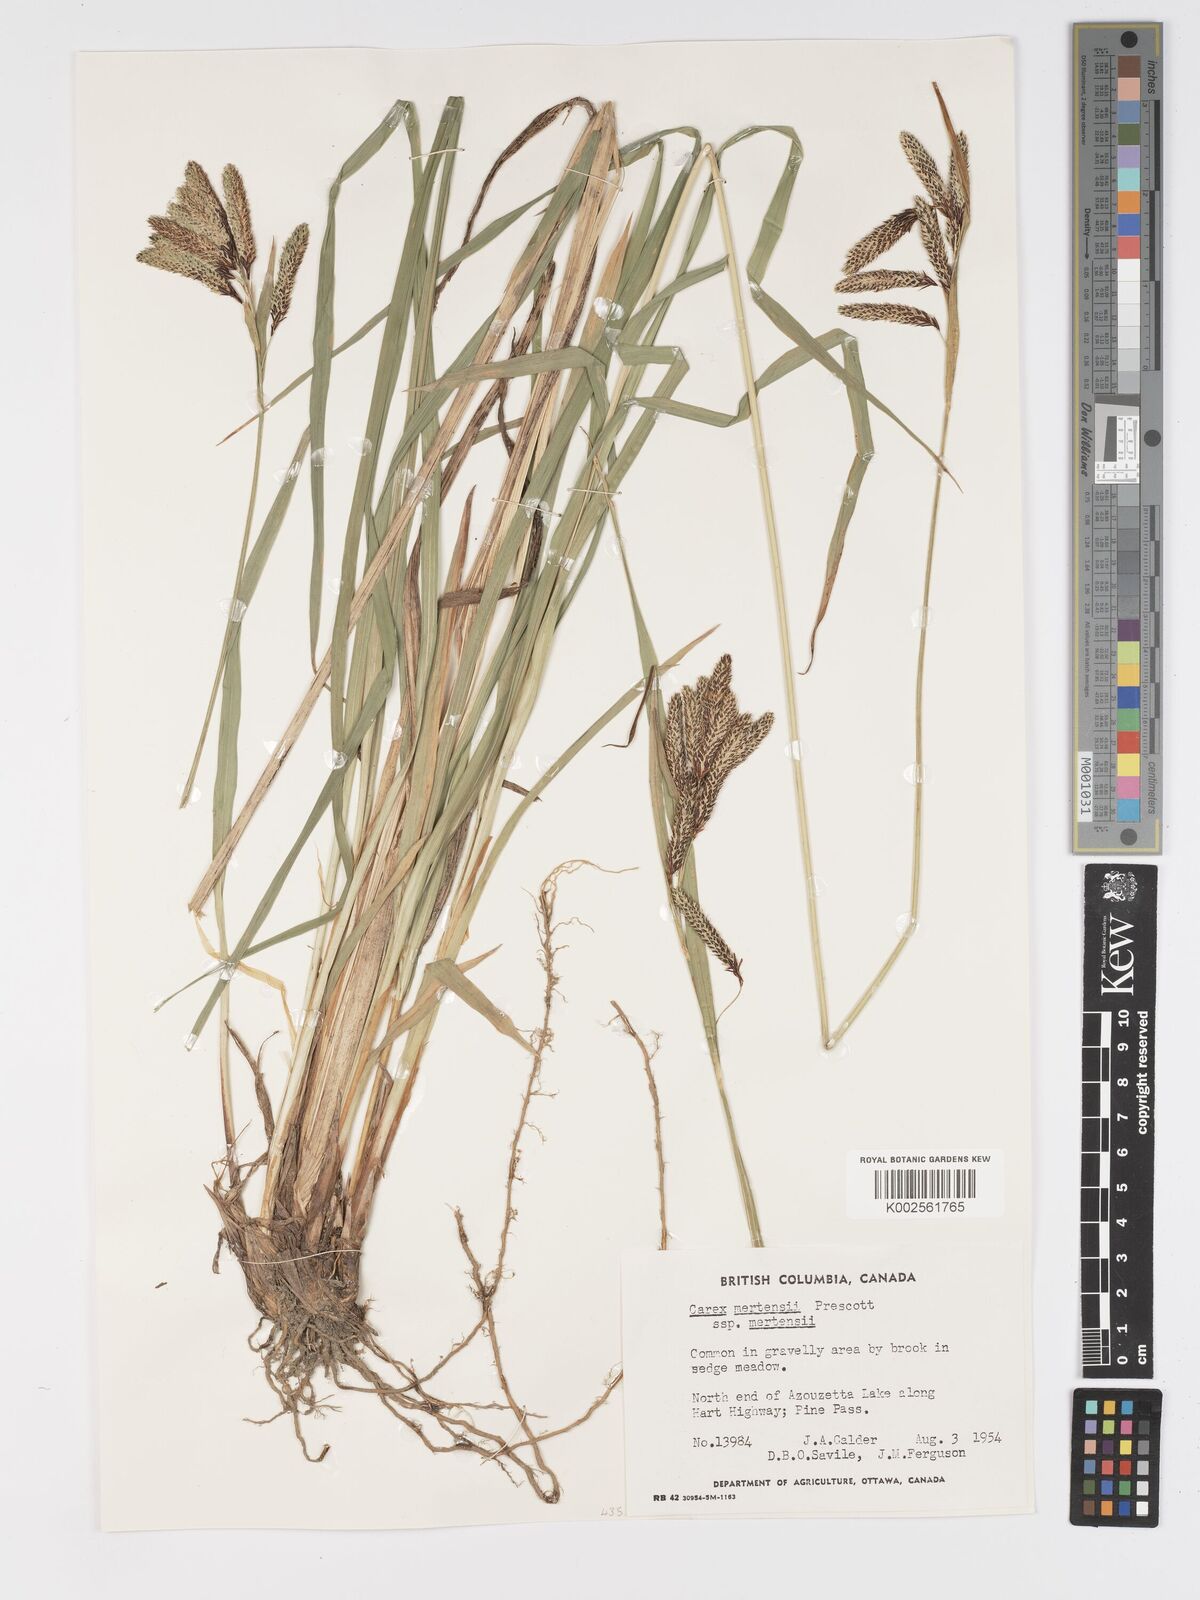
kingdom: Plantae
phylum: Tracheophyta
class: Liliopsida
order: Poales
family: Cyperaceae
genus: Carex
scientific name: Carex mertensii
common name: Mertens' sedge
